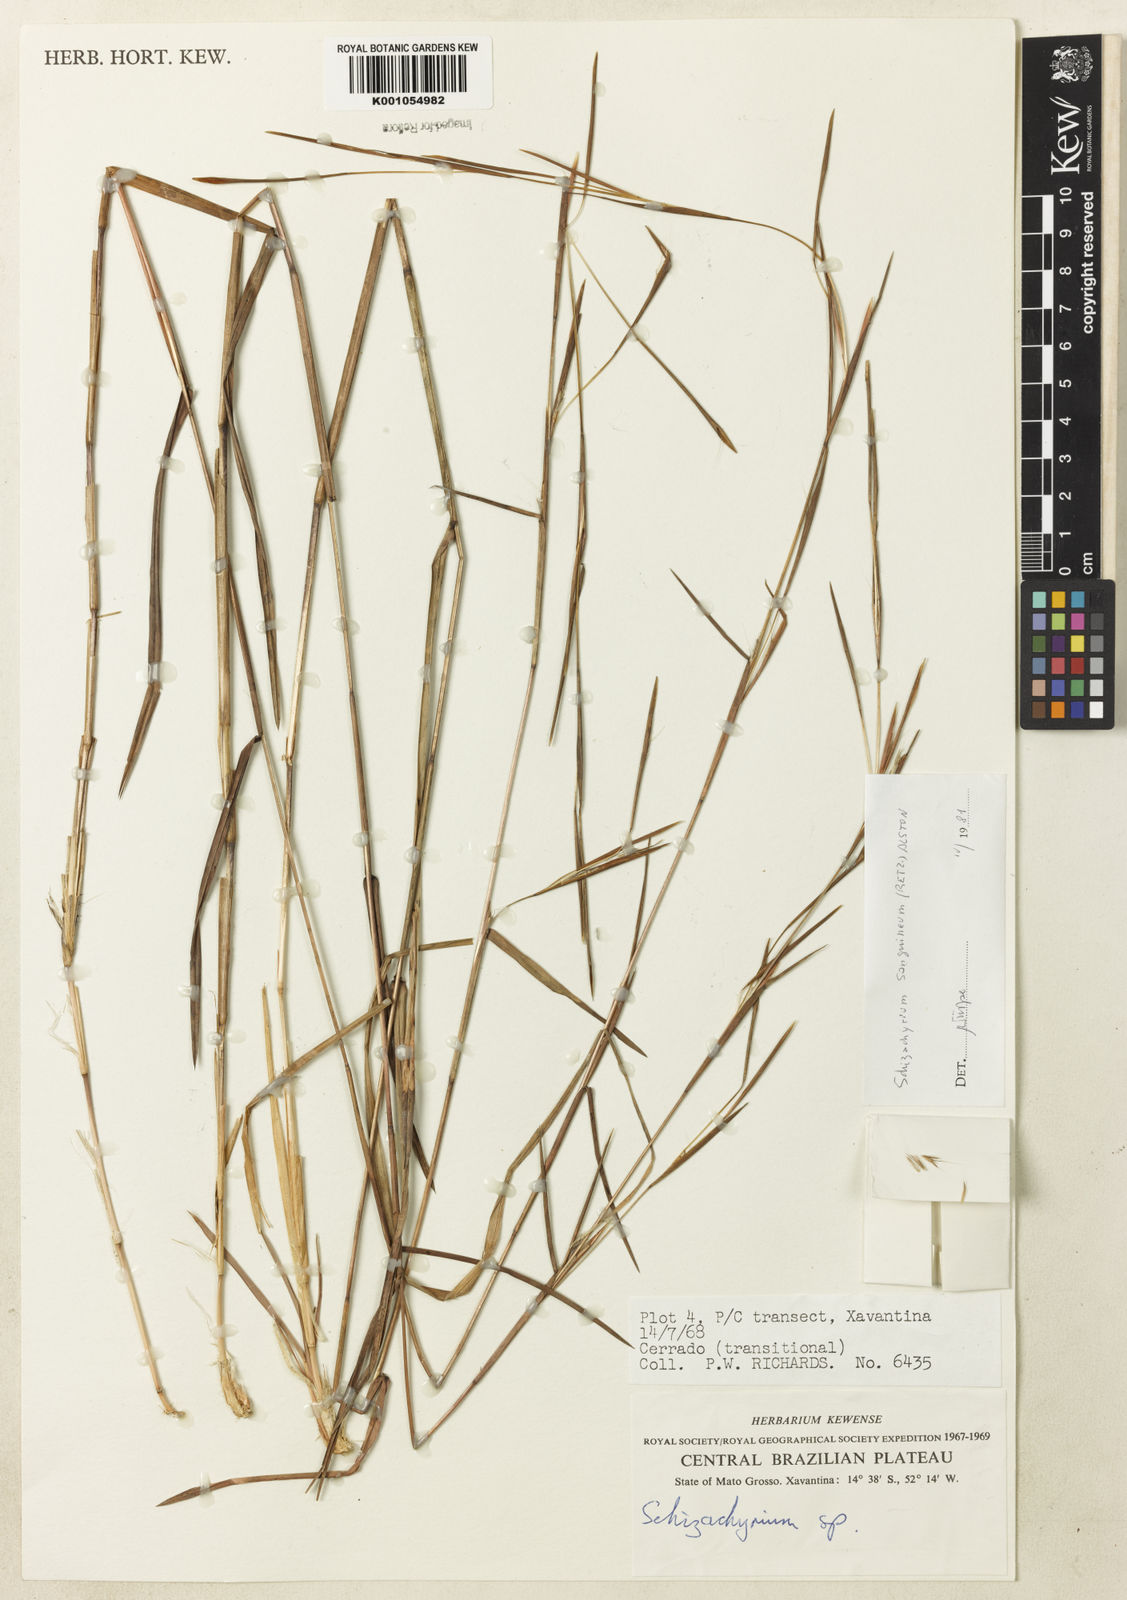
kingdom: Plantae
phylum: Tracheophyta
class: Liliopsida
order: Poales
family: Poaceae
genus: Schizachyrium
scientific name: Schizachyrium sanguineum
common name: Crimson bluestem
